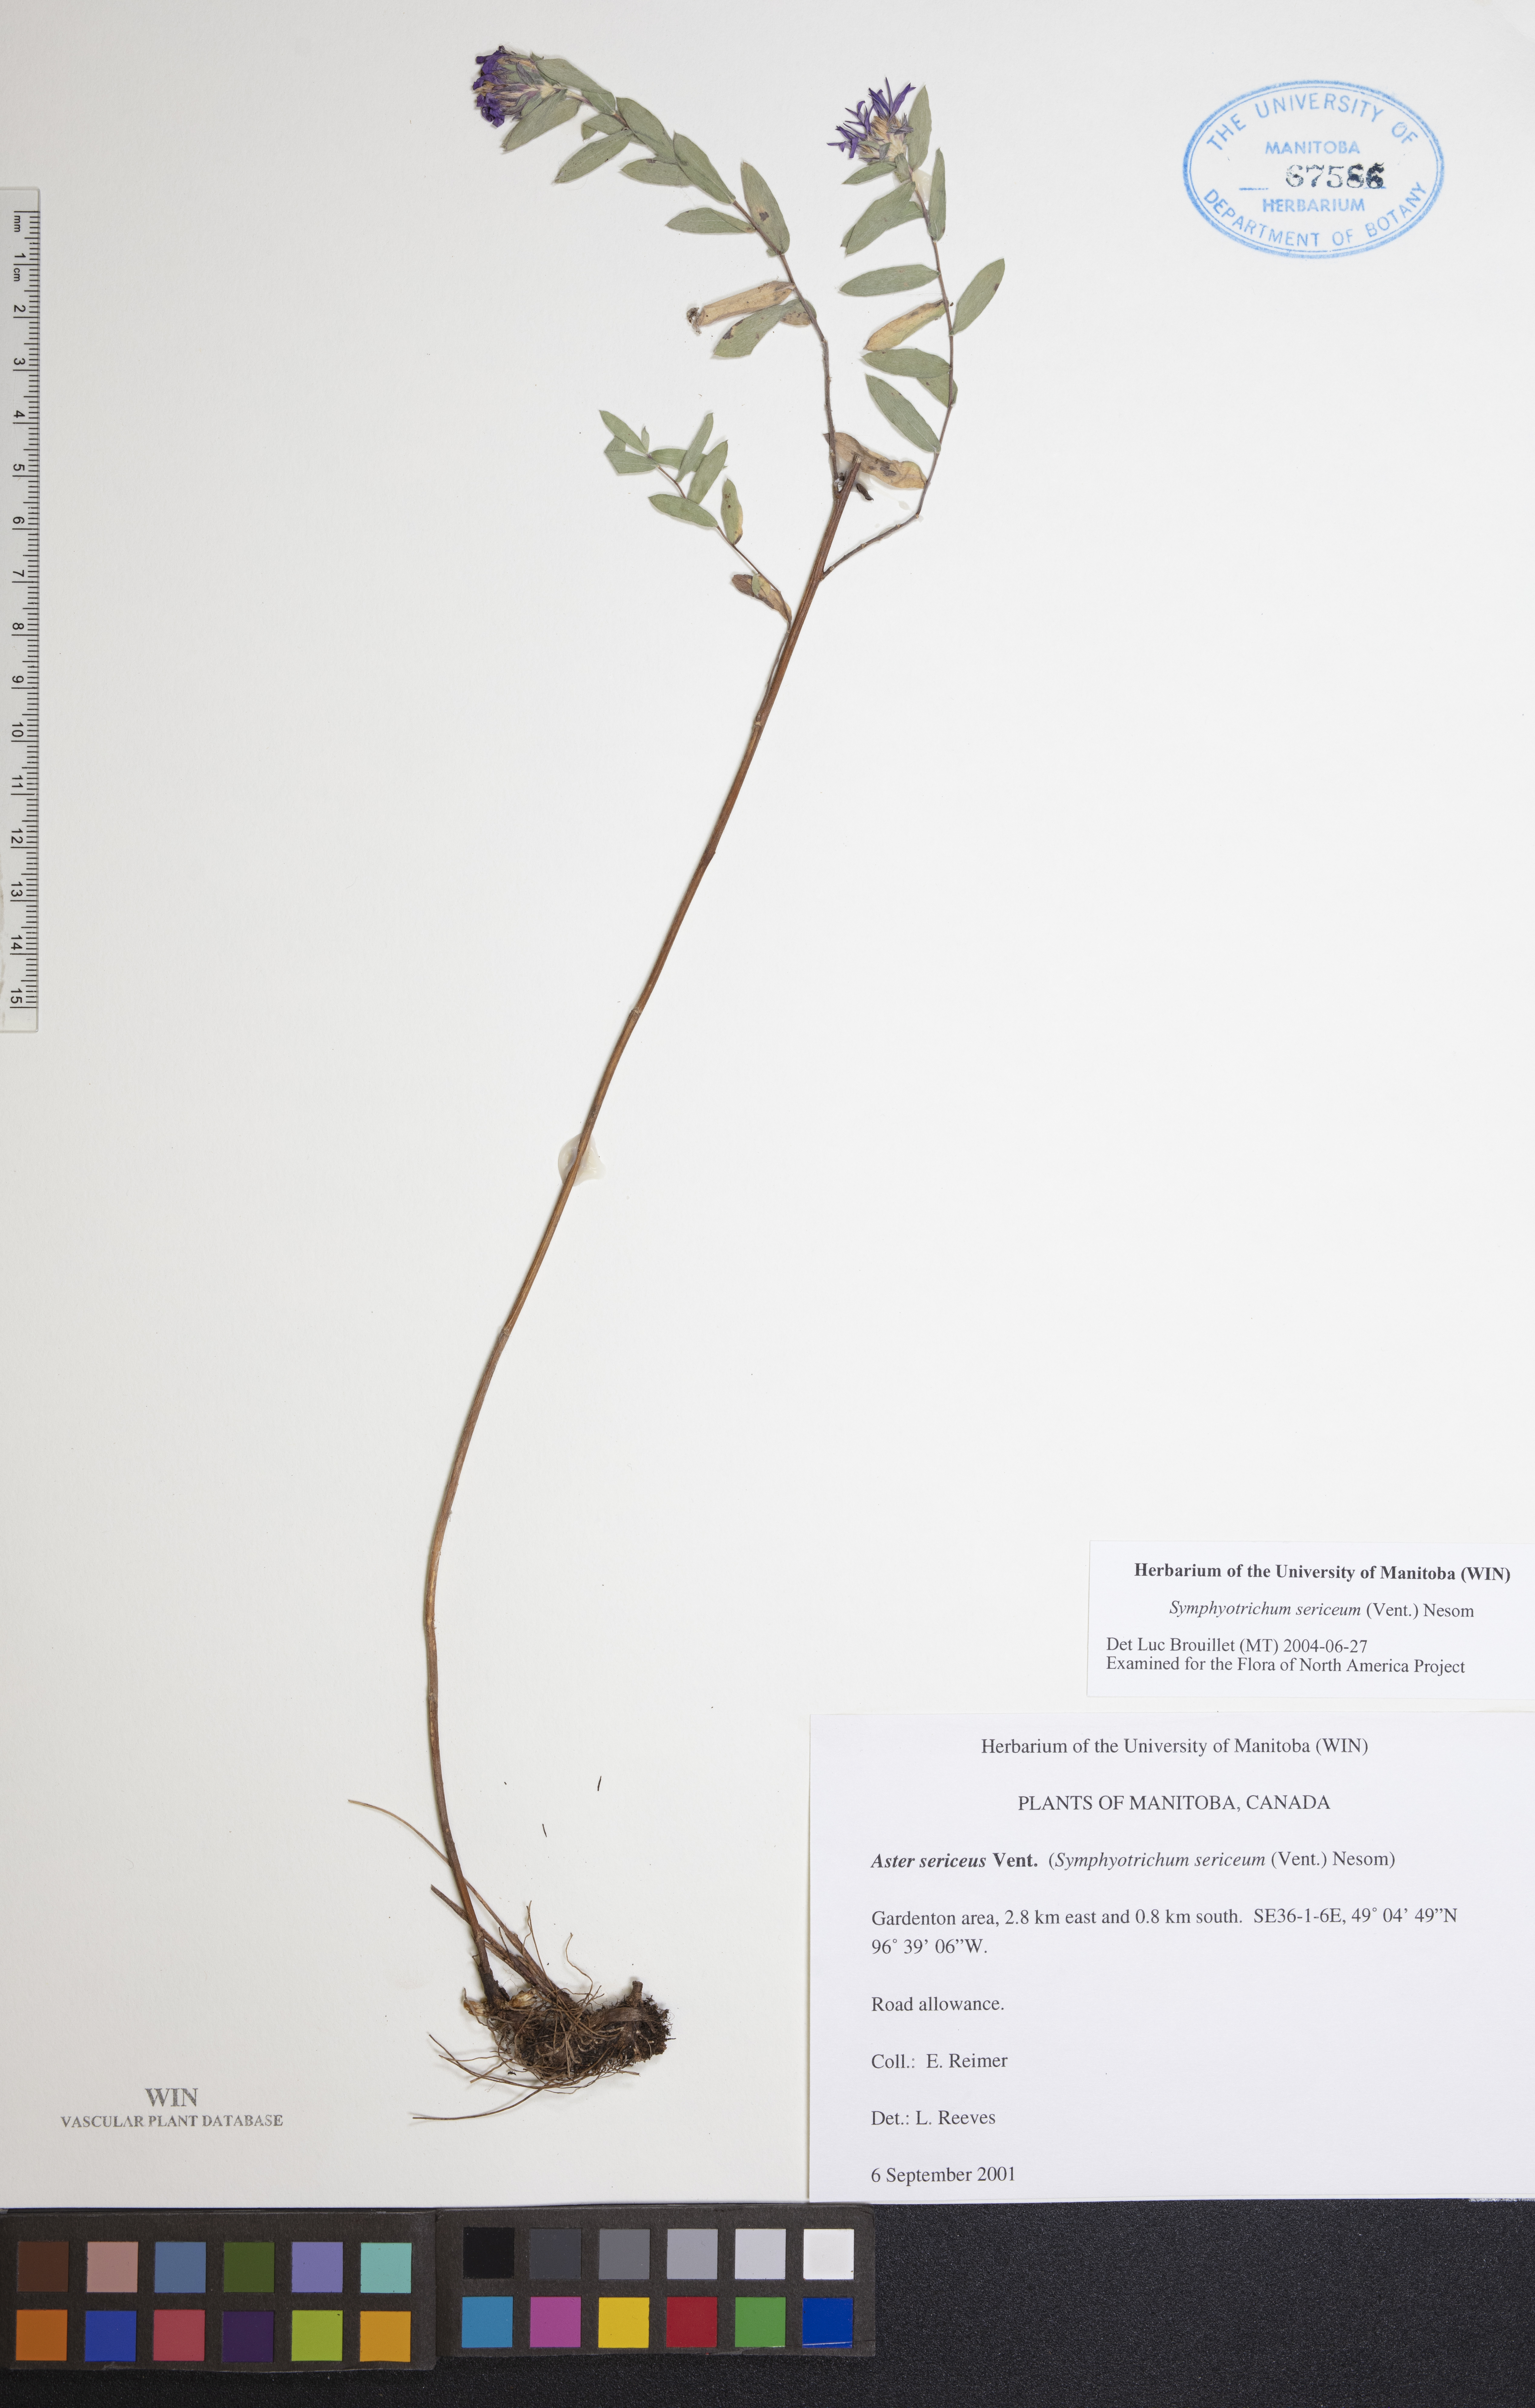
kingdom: Plantae
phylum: Tracheophyta
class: Magnoliopsida
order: Asterales
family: Asteraceae
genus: Symphyotrichum
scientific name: Symphyotrichum sericeum
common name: Silky aster
